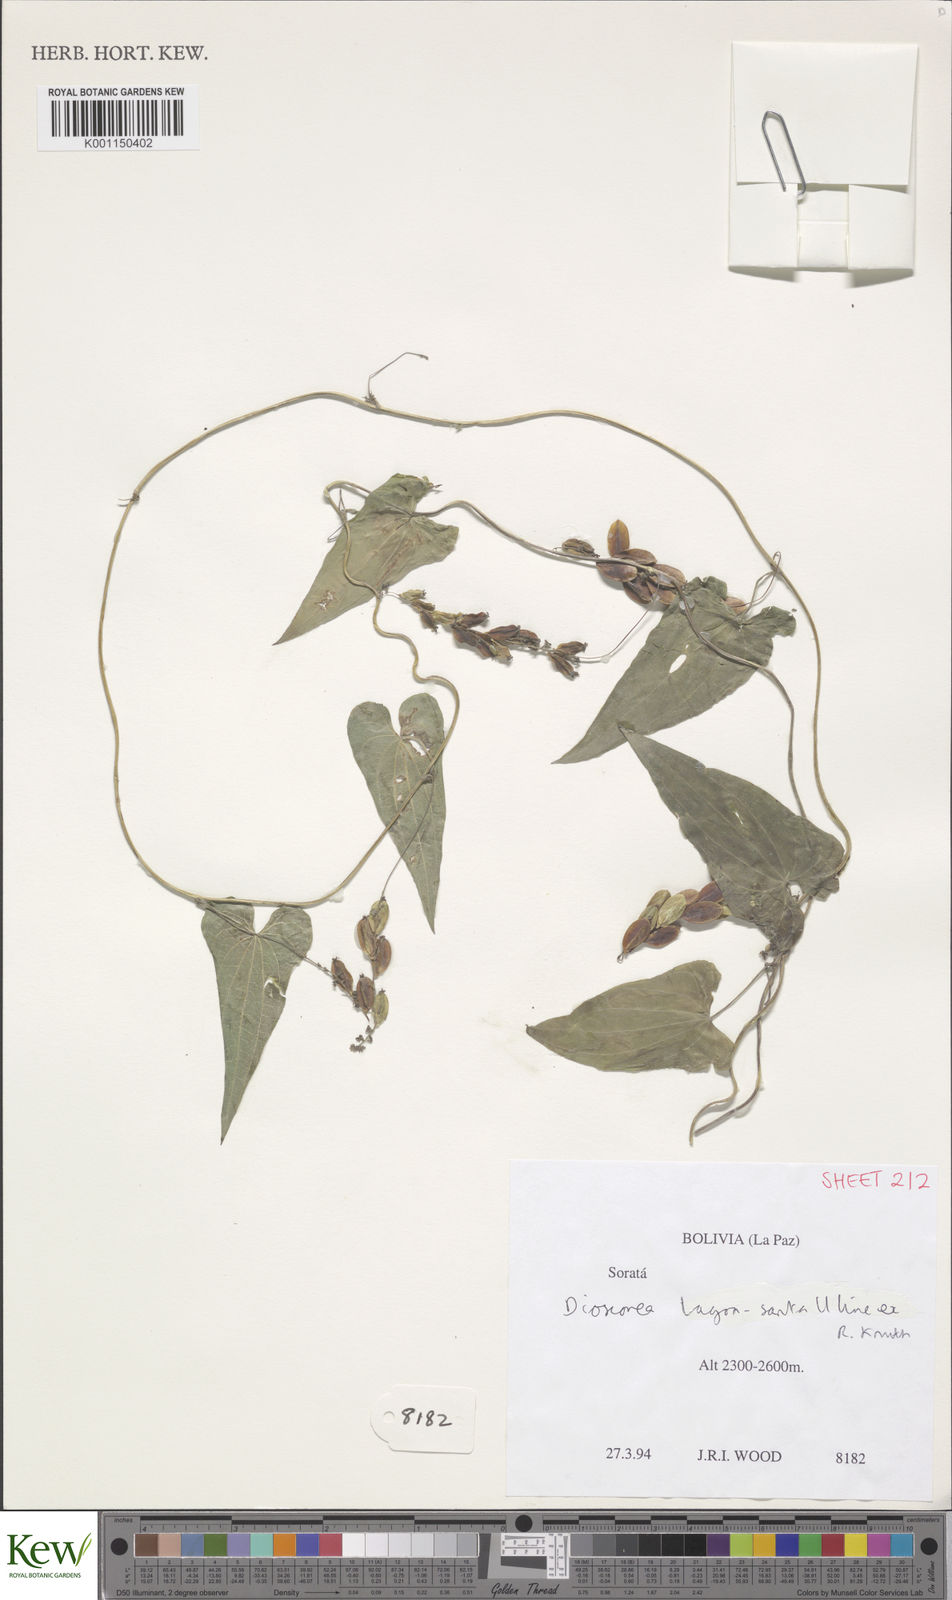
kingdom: Plantae
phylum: Tracheophyta
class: Liliopsida
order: Dioscoreales
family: Dioscoreaceae
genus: Dioscorea
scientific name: Dioscorea subhastata
